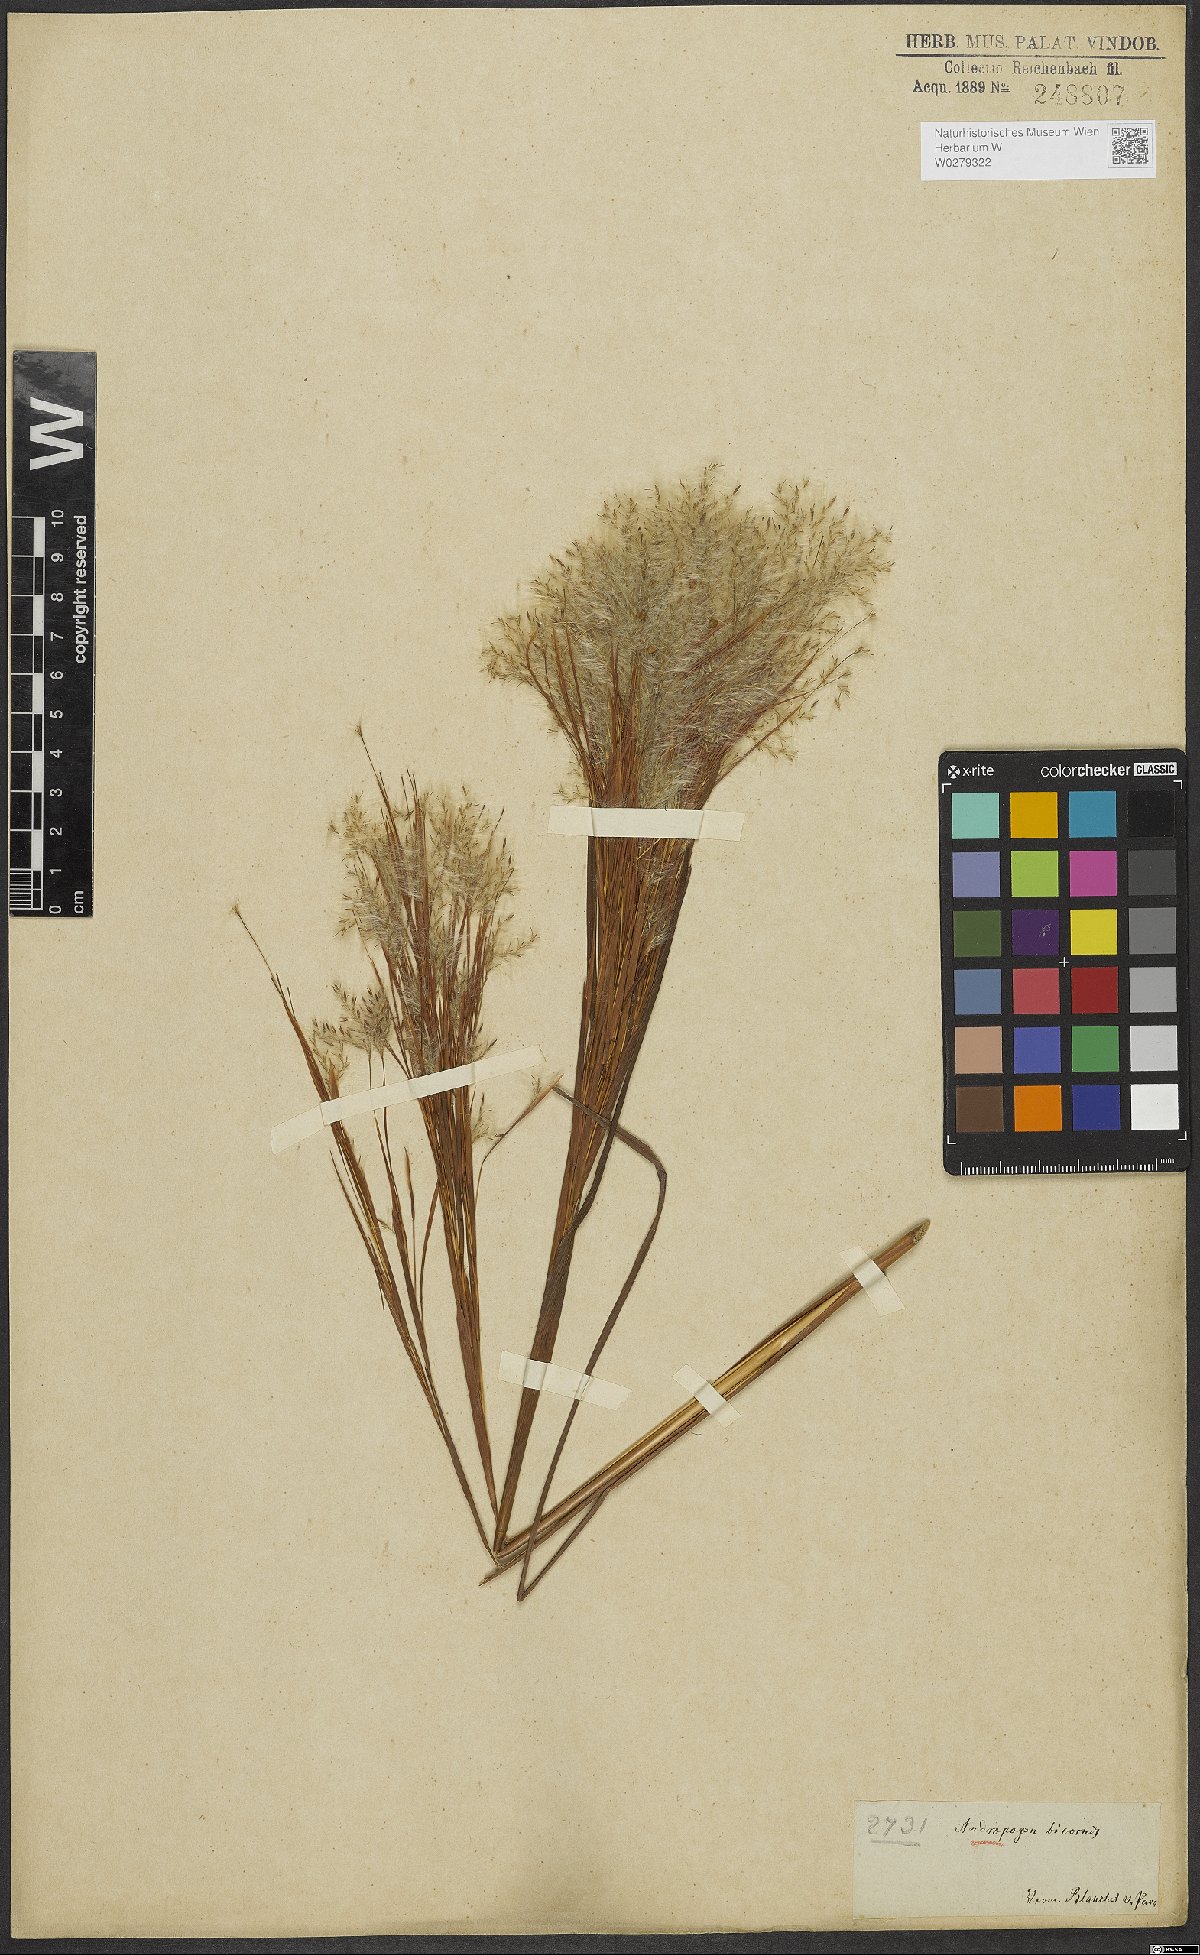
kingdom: Plantae
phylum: Tracheophyta
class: Liliopsida
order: Poales
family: Poaceae
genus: Andropogon
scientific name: Andropogon bicornis
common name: West indian foxtail grass
